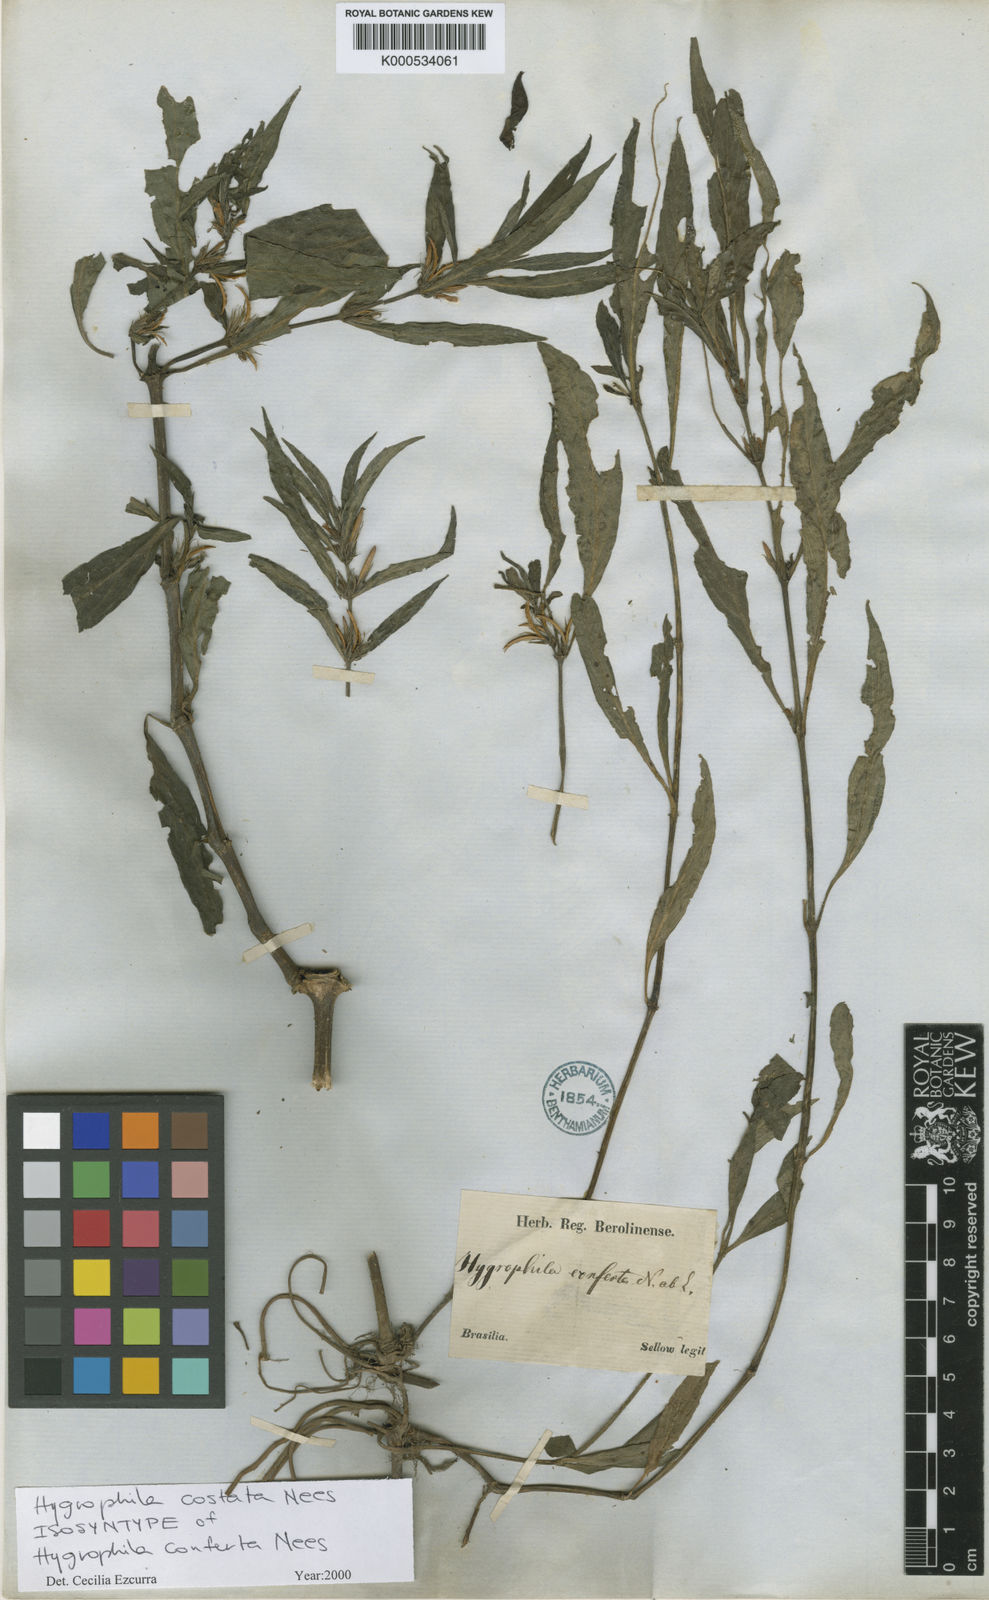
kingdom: Plantae
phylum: Tracheophyta
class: Magnoliopsida
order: Lamiales
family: Acanthaceae
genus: Hygrophila
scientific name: Hygrophila costata
